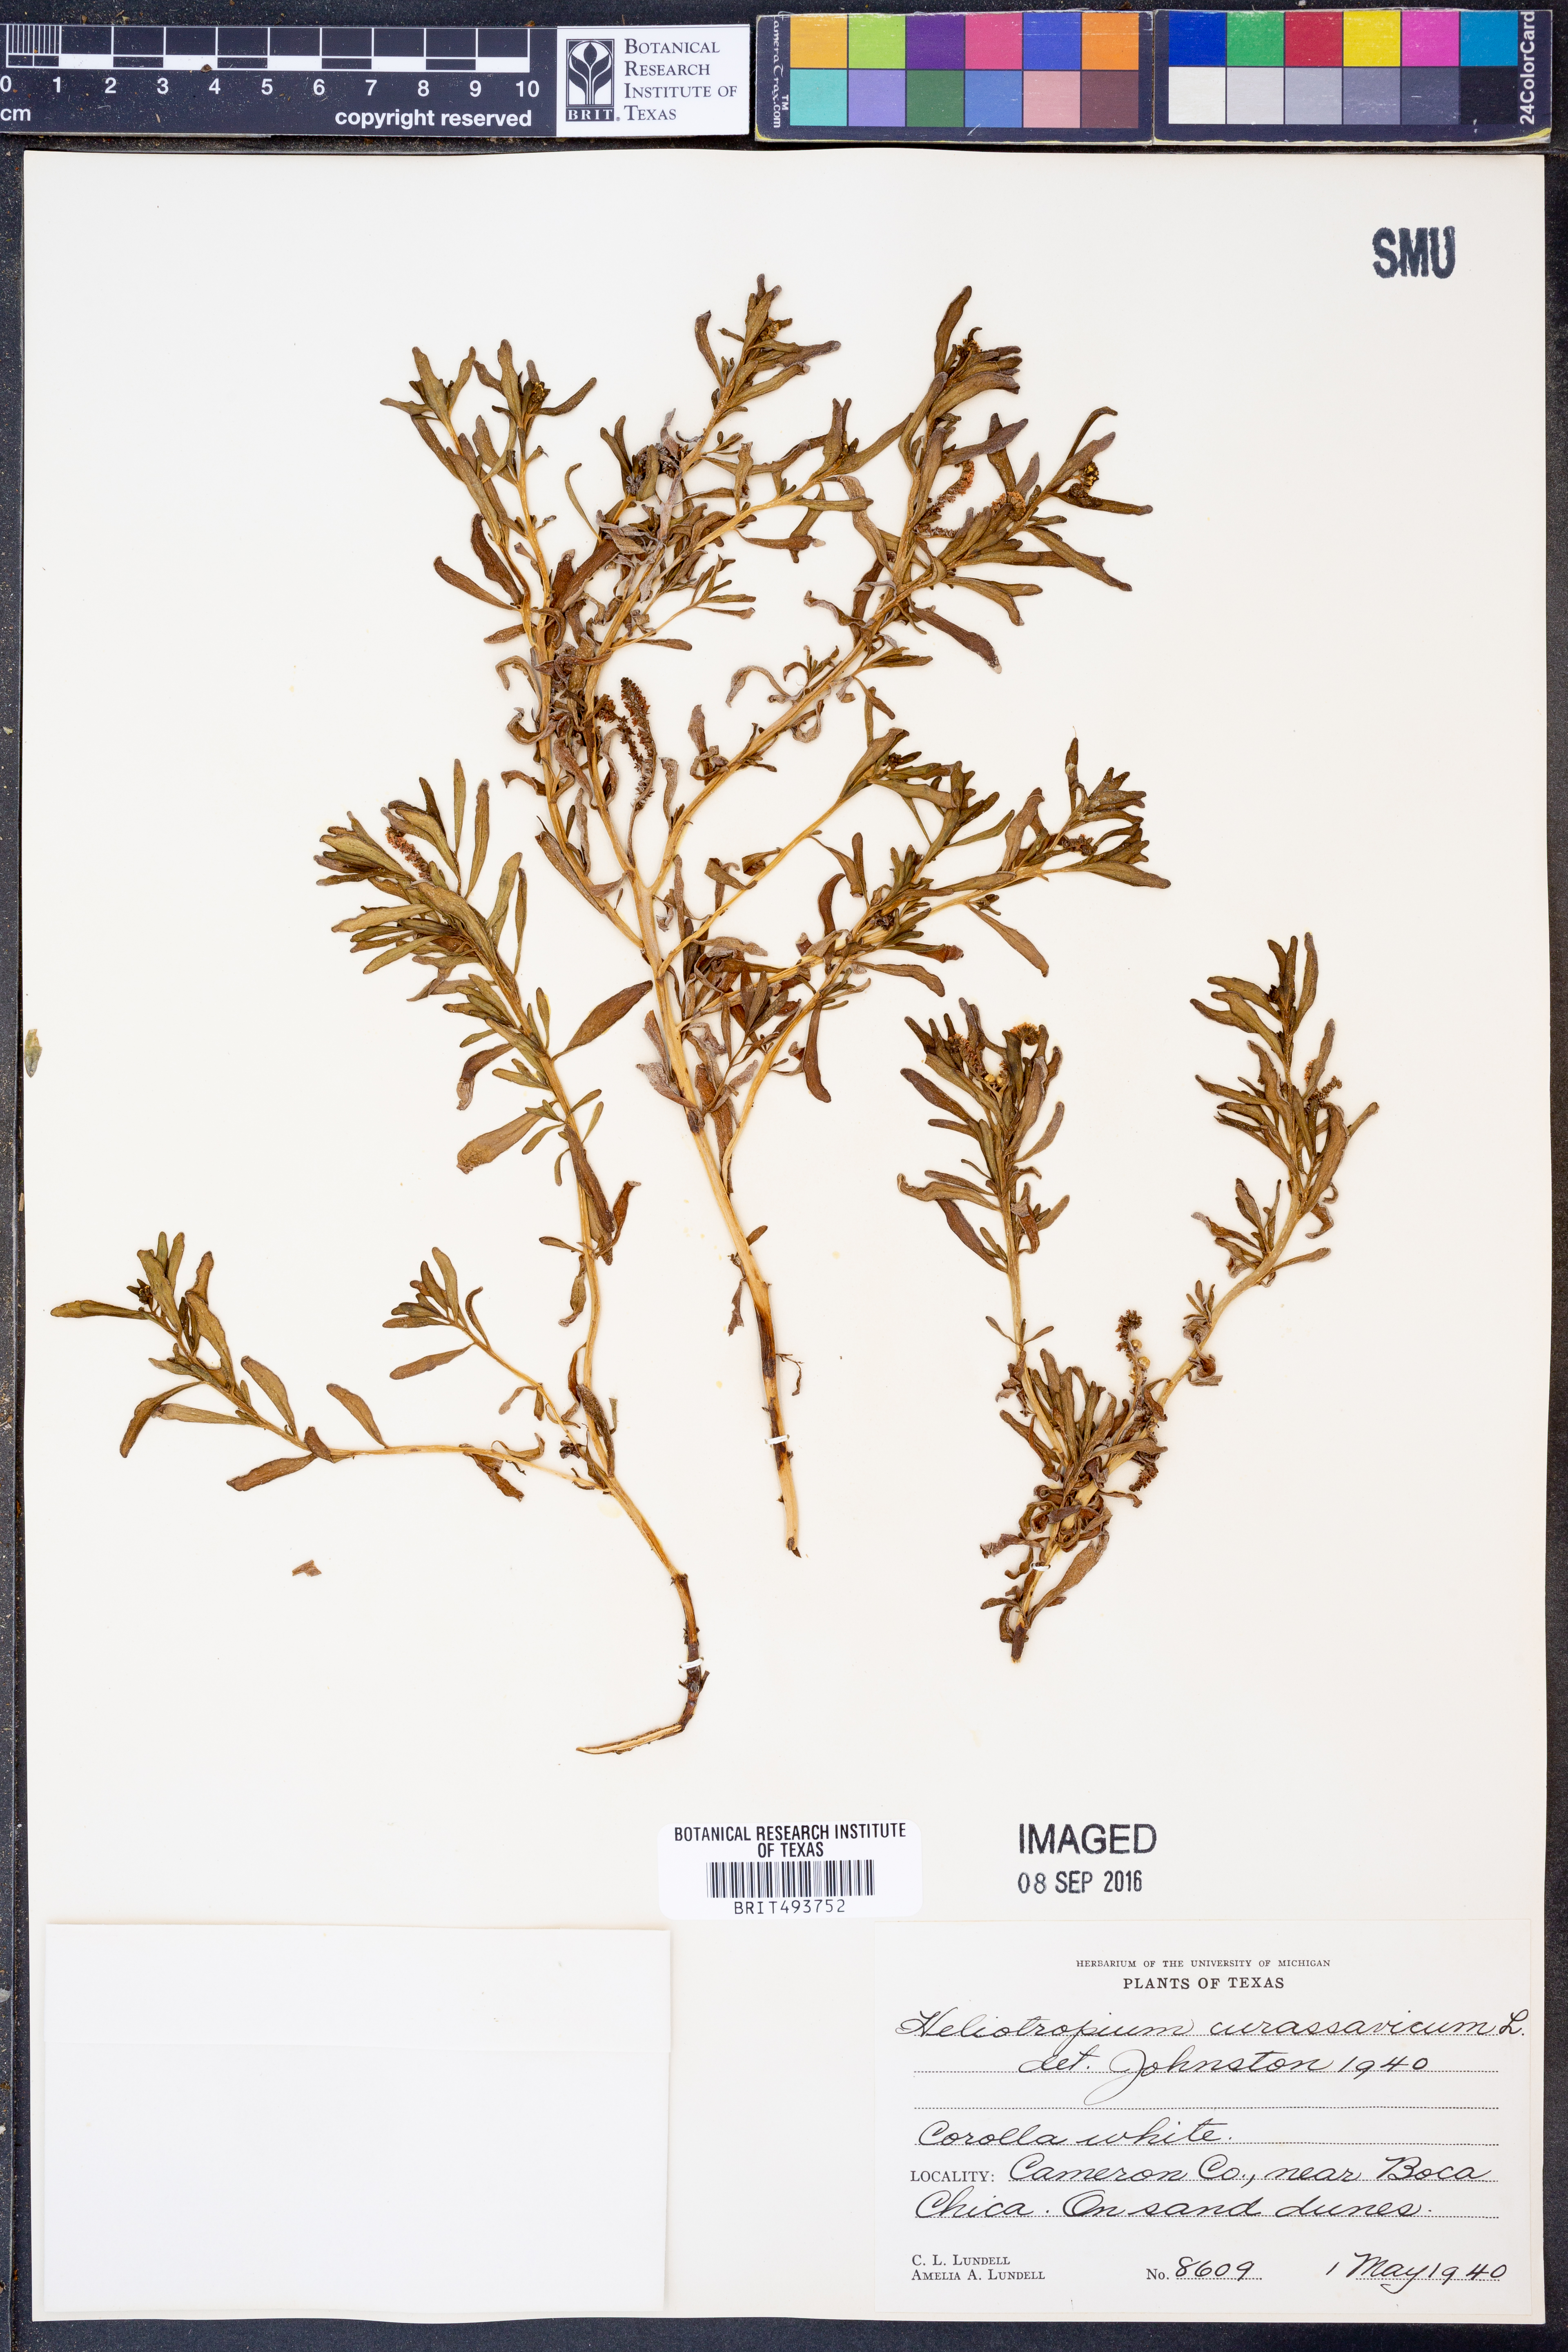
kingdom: Plantae
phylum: Tracheophyta
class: Magnoliopsida
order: Boraginales
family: Heliotropiaceae
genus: Heliotropium
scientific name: Heliotropium curassavicum
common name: Seaside heliotrope
